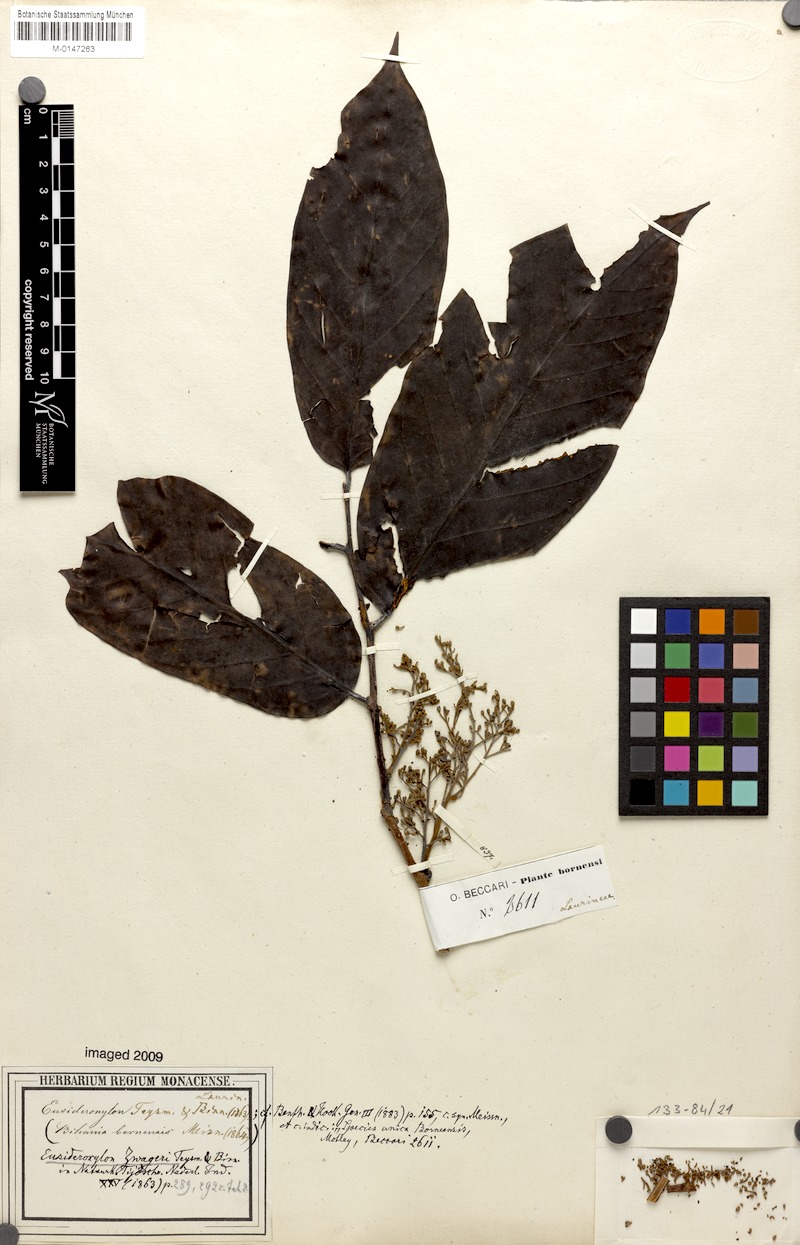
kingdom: Plantae
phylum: Tracheophyta
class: Magnoliopsida
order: Laurales
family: Lauraceae
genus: Eusideroxylon
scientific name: Eusideroxylon zwageri
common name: Borneo ironwood
